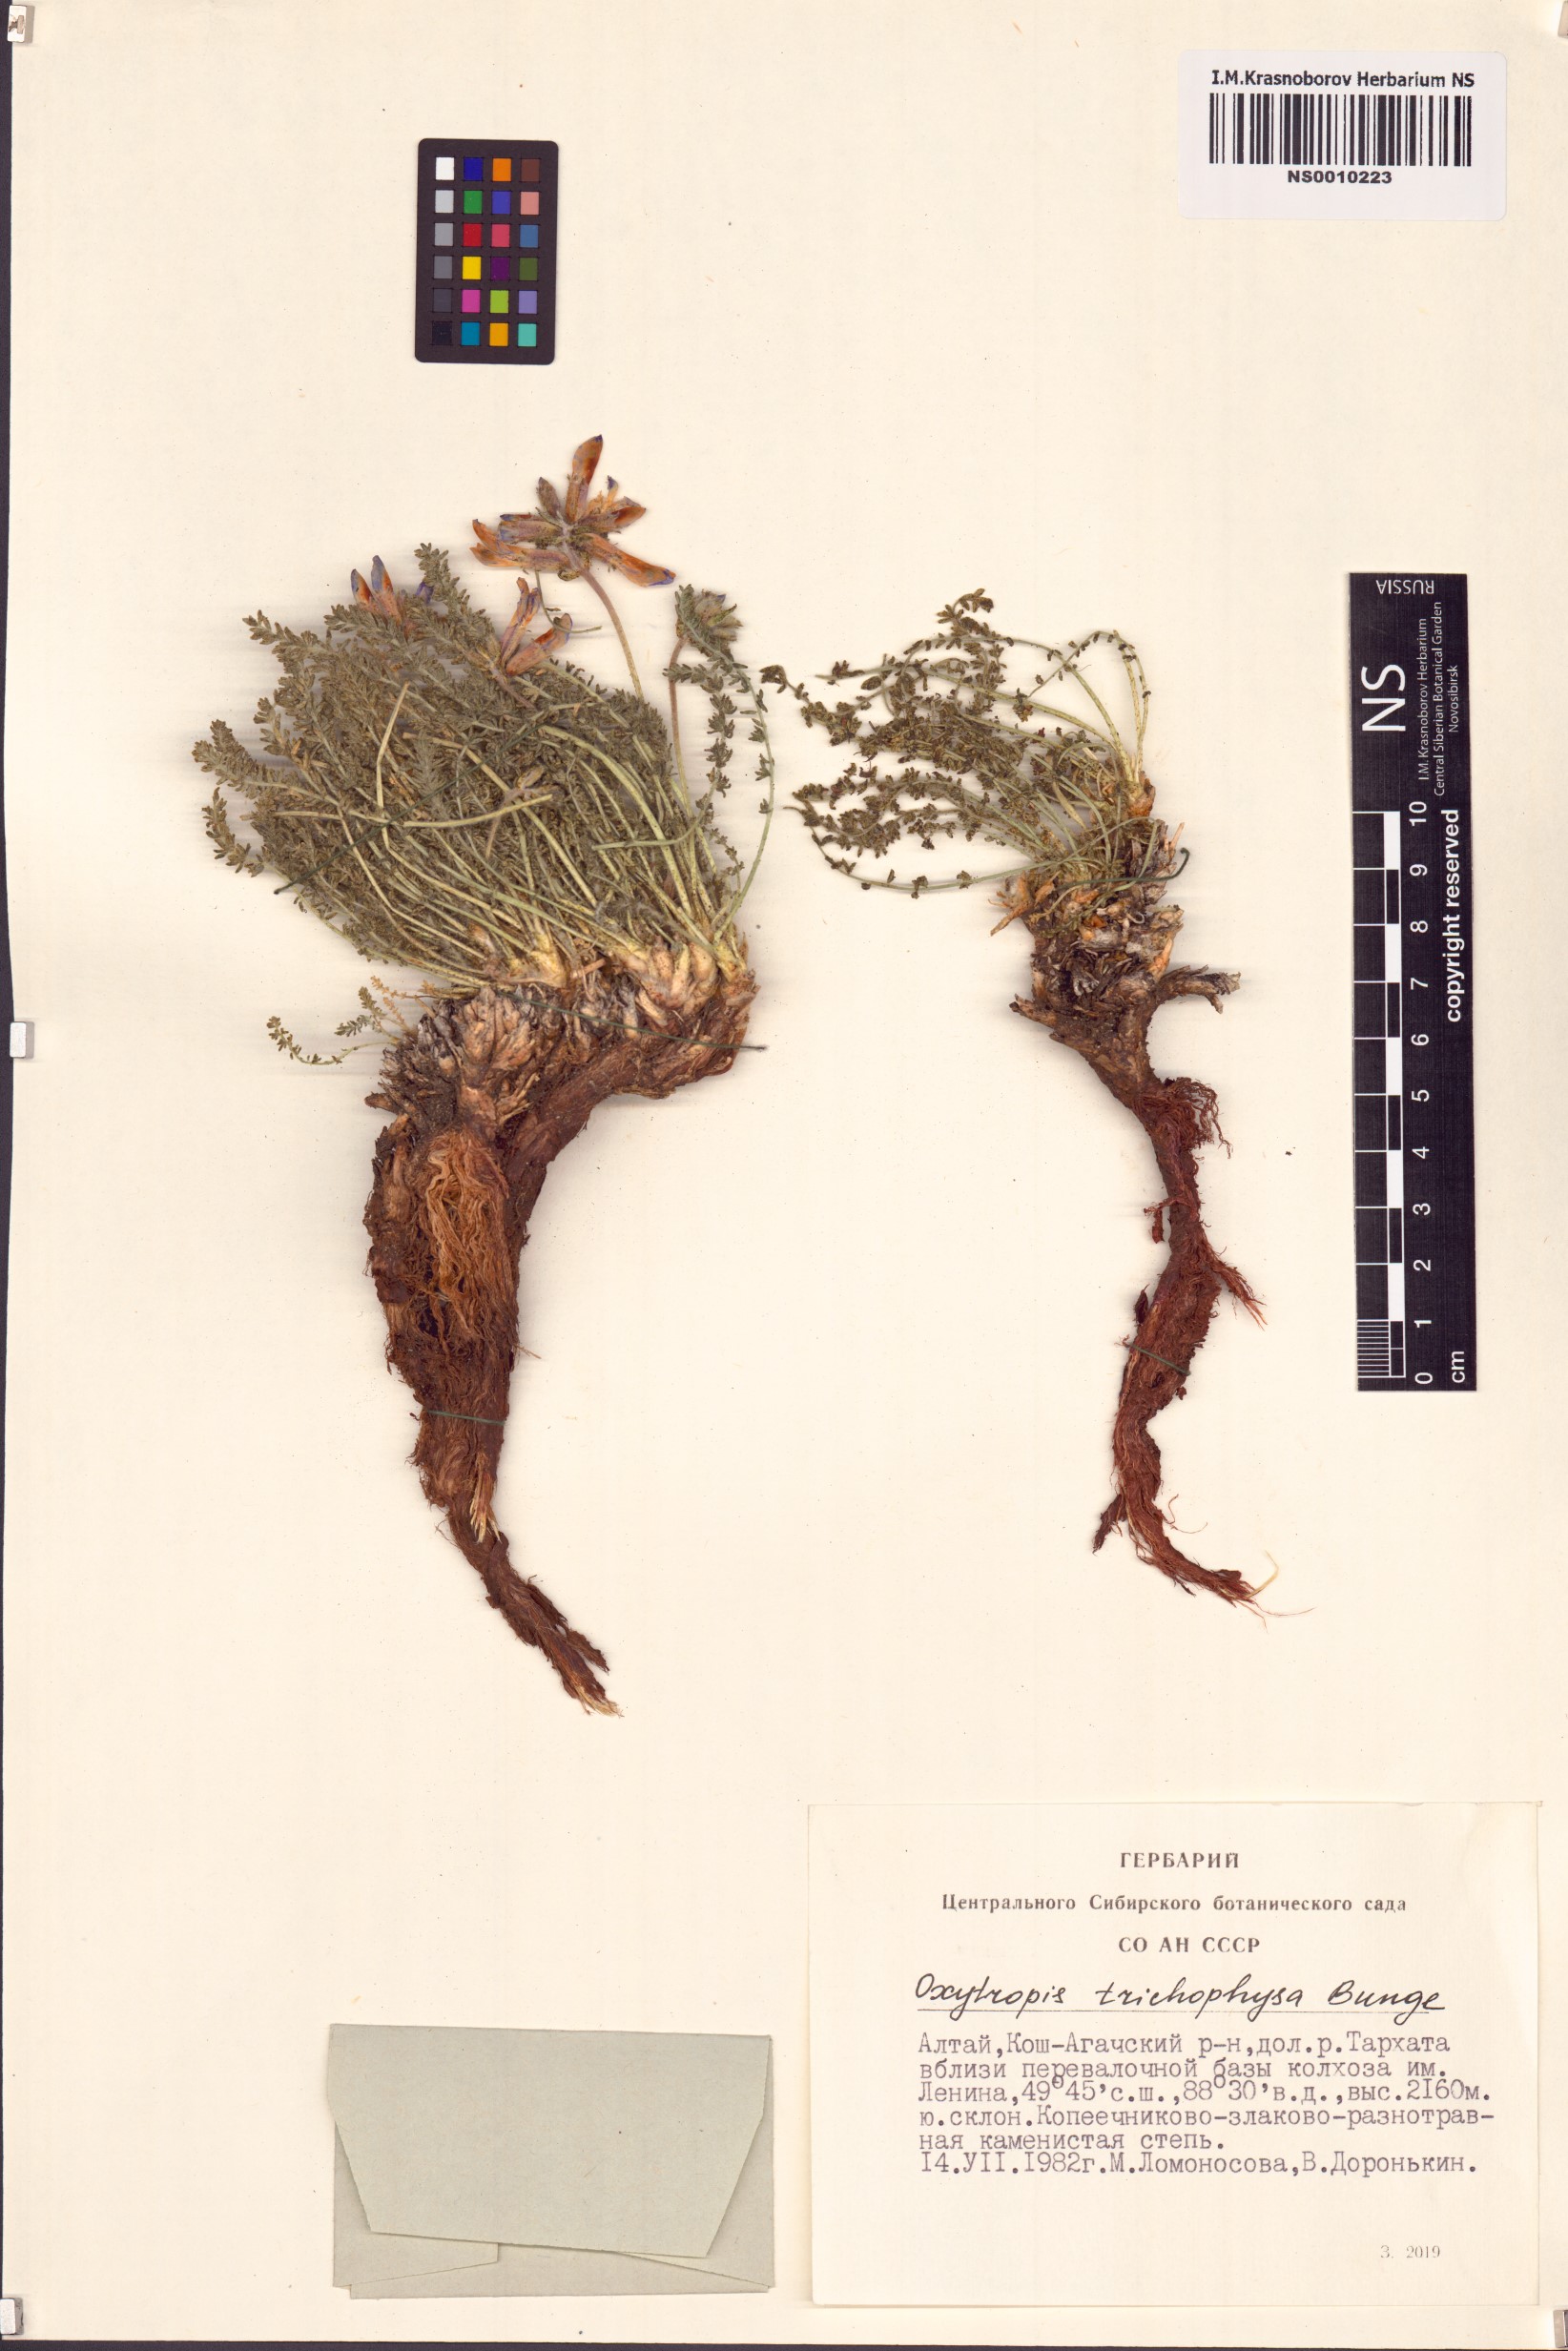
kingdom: Plantae
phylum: Tracheophyta
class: Magnoliopsida
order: Fabales
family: Fabaceae
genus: Oxytropis
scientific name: Oxytropis trichophysa
